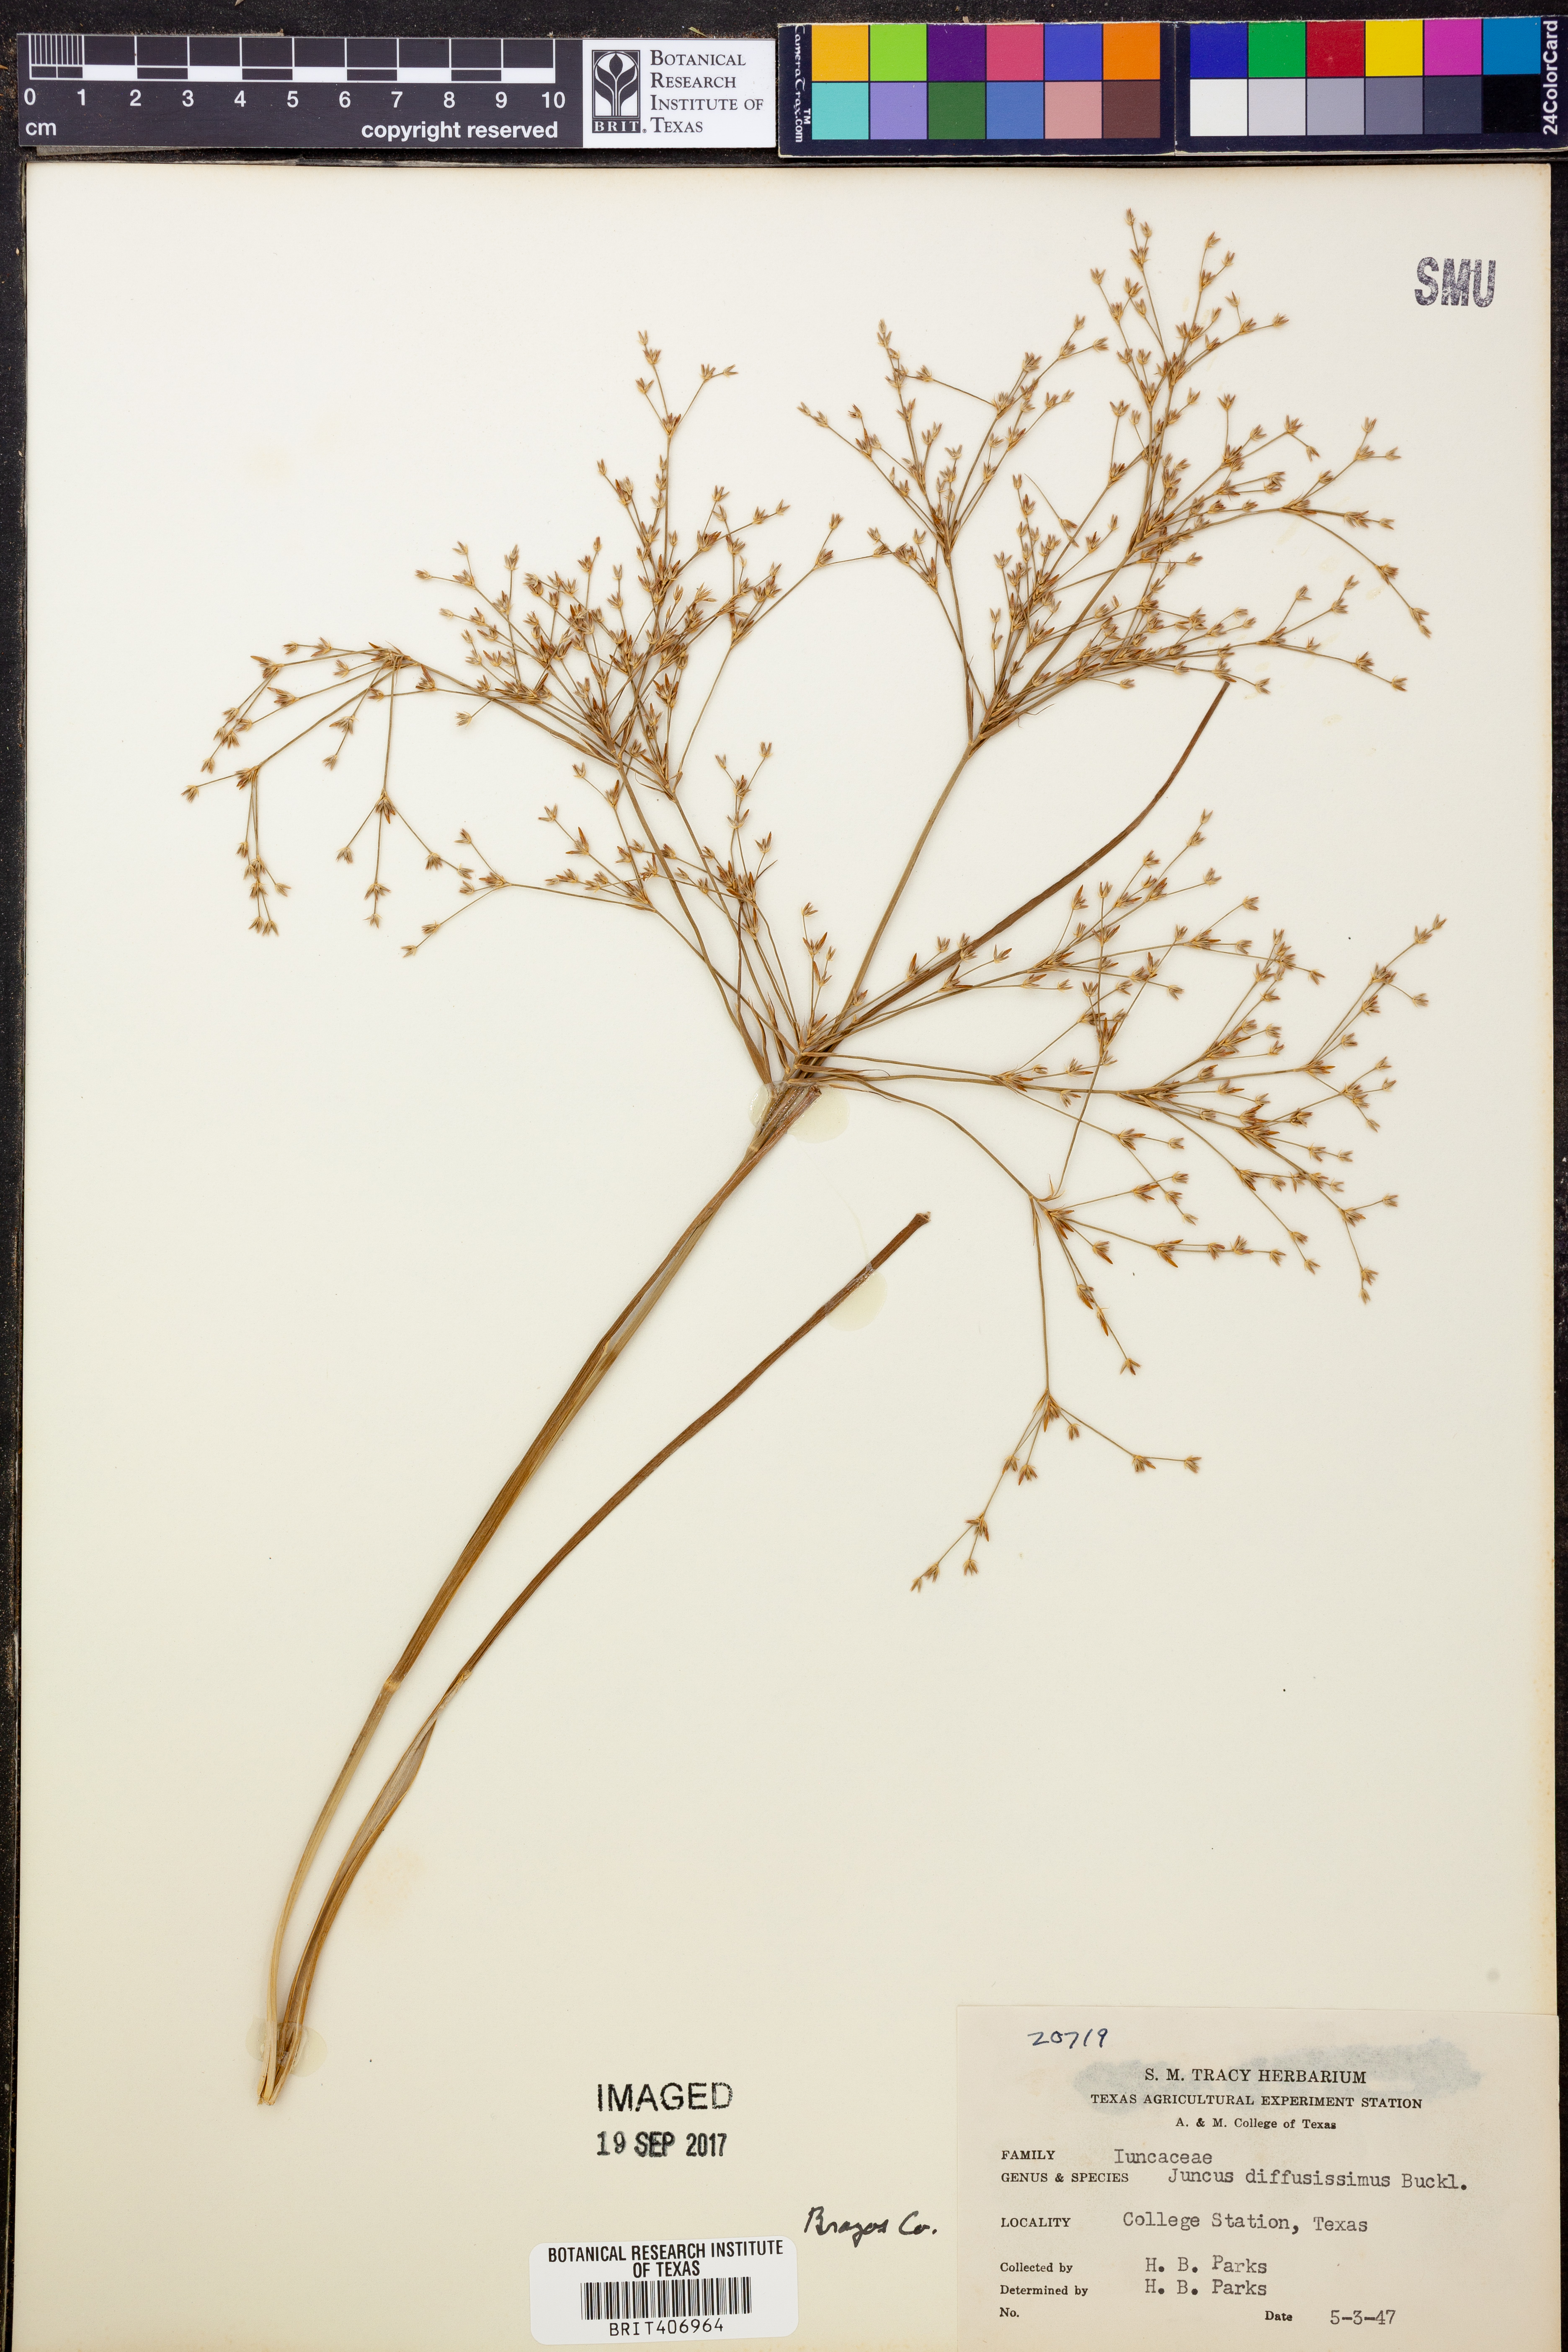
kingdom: Plantae
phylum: Tracheophyta
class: Liliopsida
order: Poales
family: Juncaceae
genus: Juncus
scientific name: Juncus diffusissimus
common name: Slimpod rush
